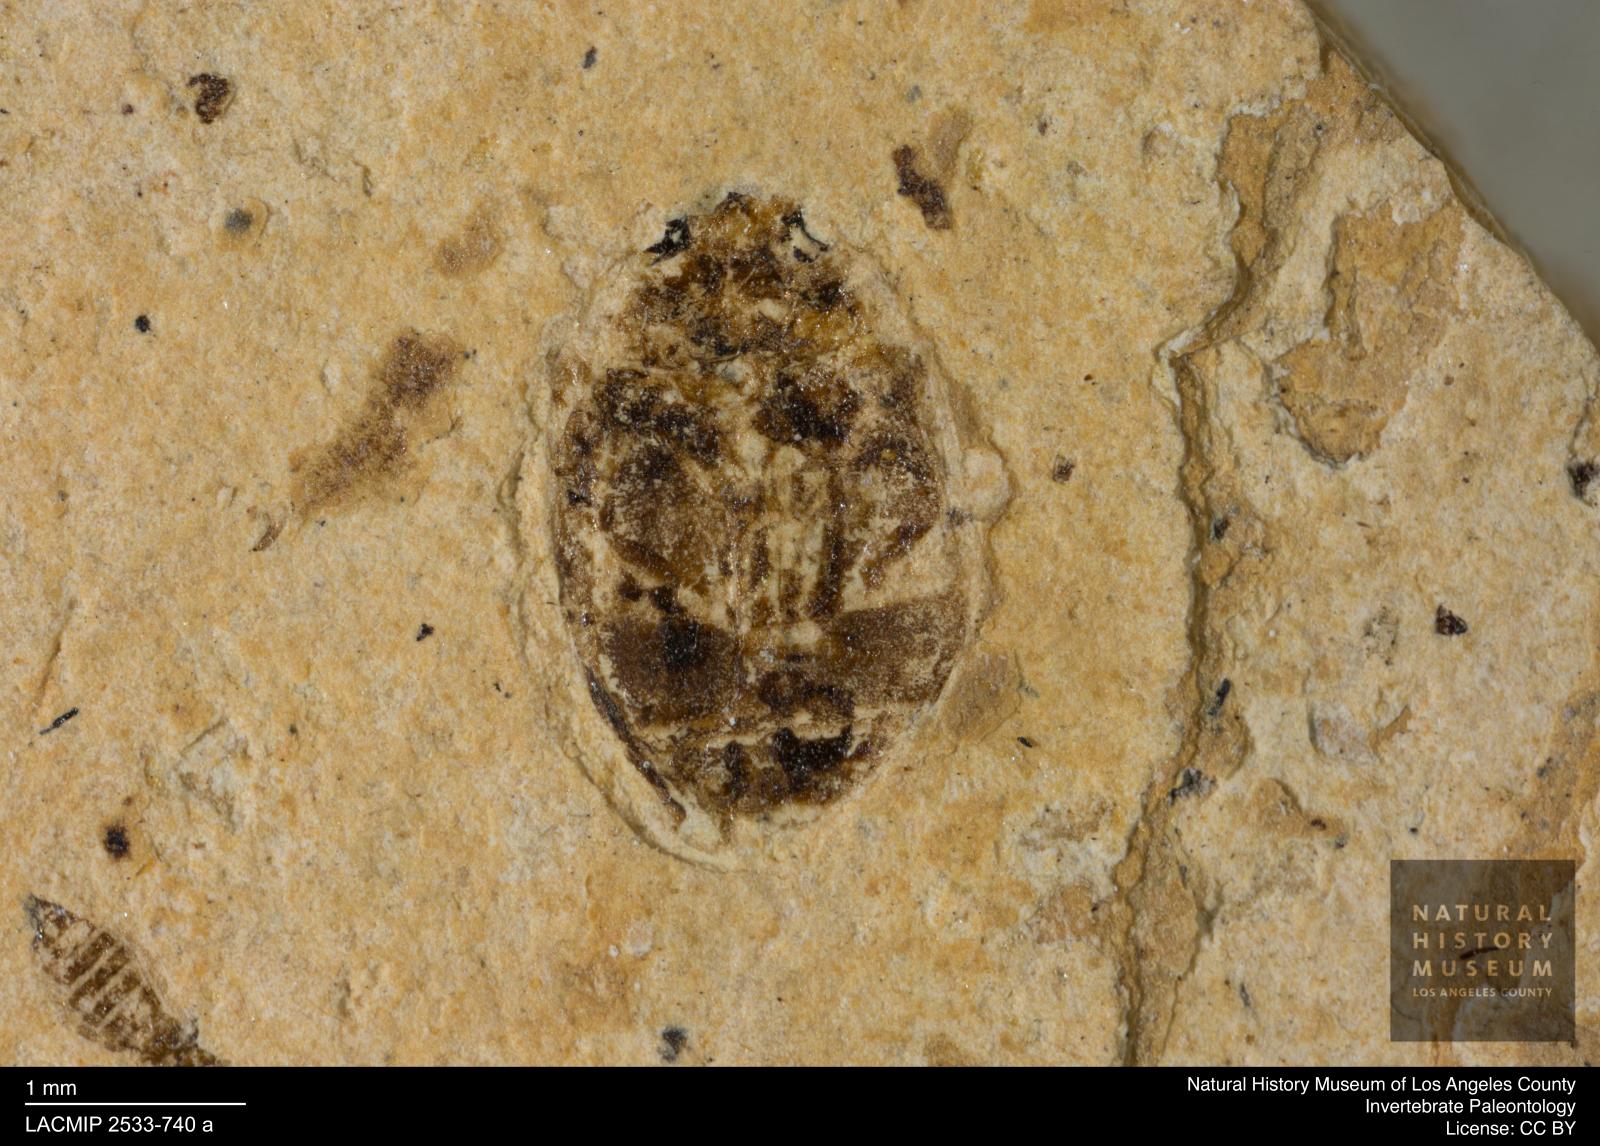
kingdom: Animalia
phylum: Arthropoda
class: Insecta
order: Coleoptera
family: Dytiscidae
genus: Oreodytes
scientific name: Oreodytes cryptolineatus
